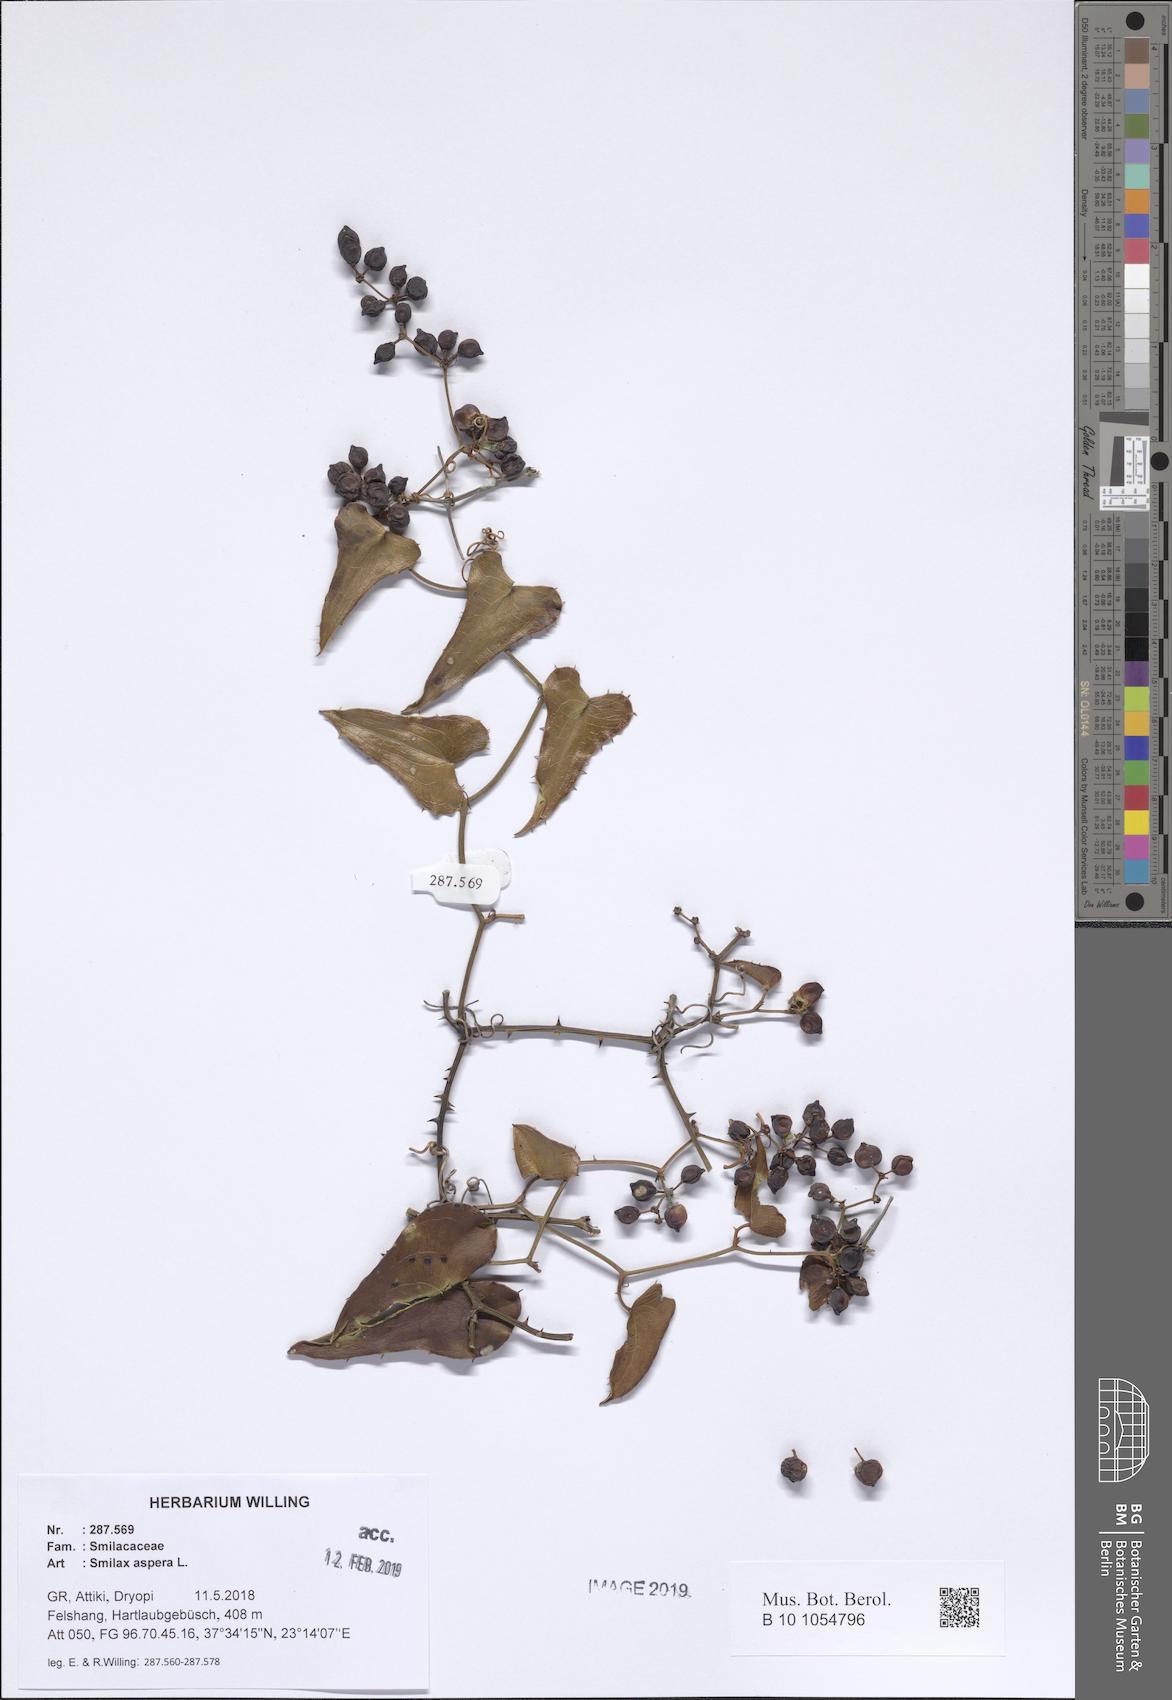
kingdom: Plantae
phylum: Tracheophyta
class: Liliopsida
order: Liliales
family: Smilacaceae
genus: Smilax
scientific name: Smilax aspera
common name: Common smilax
